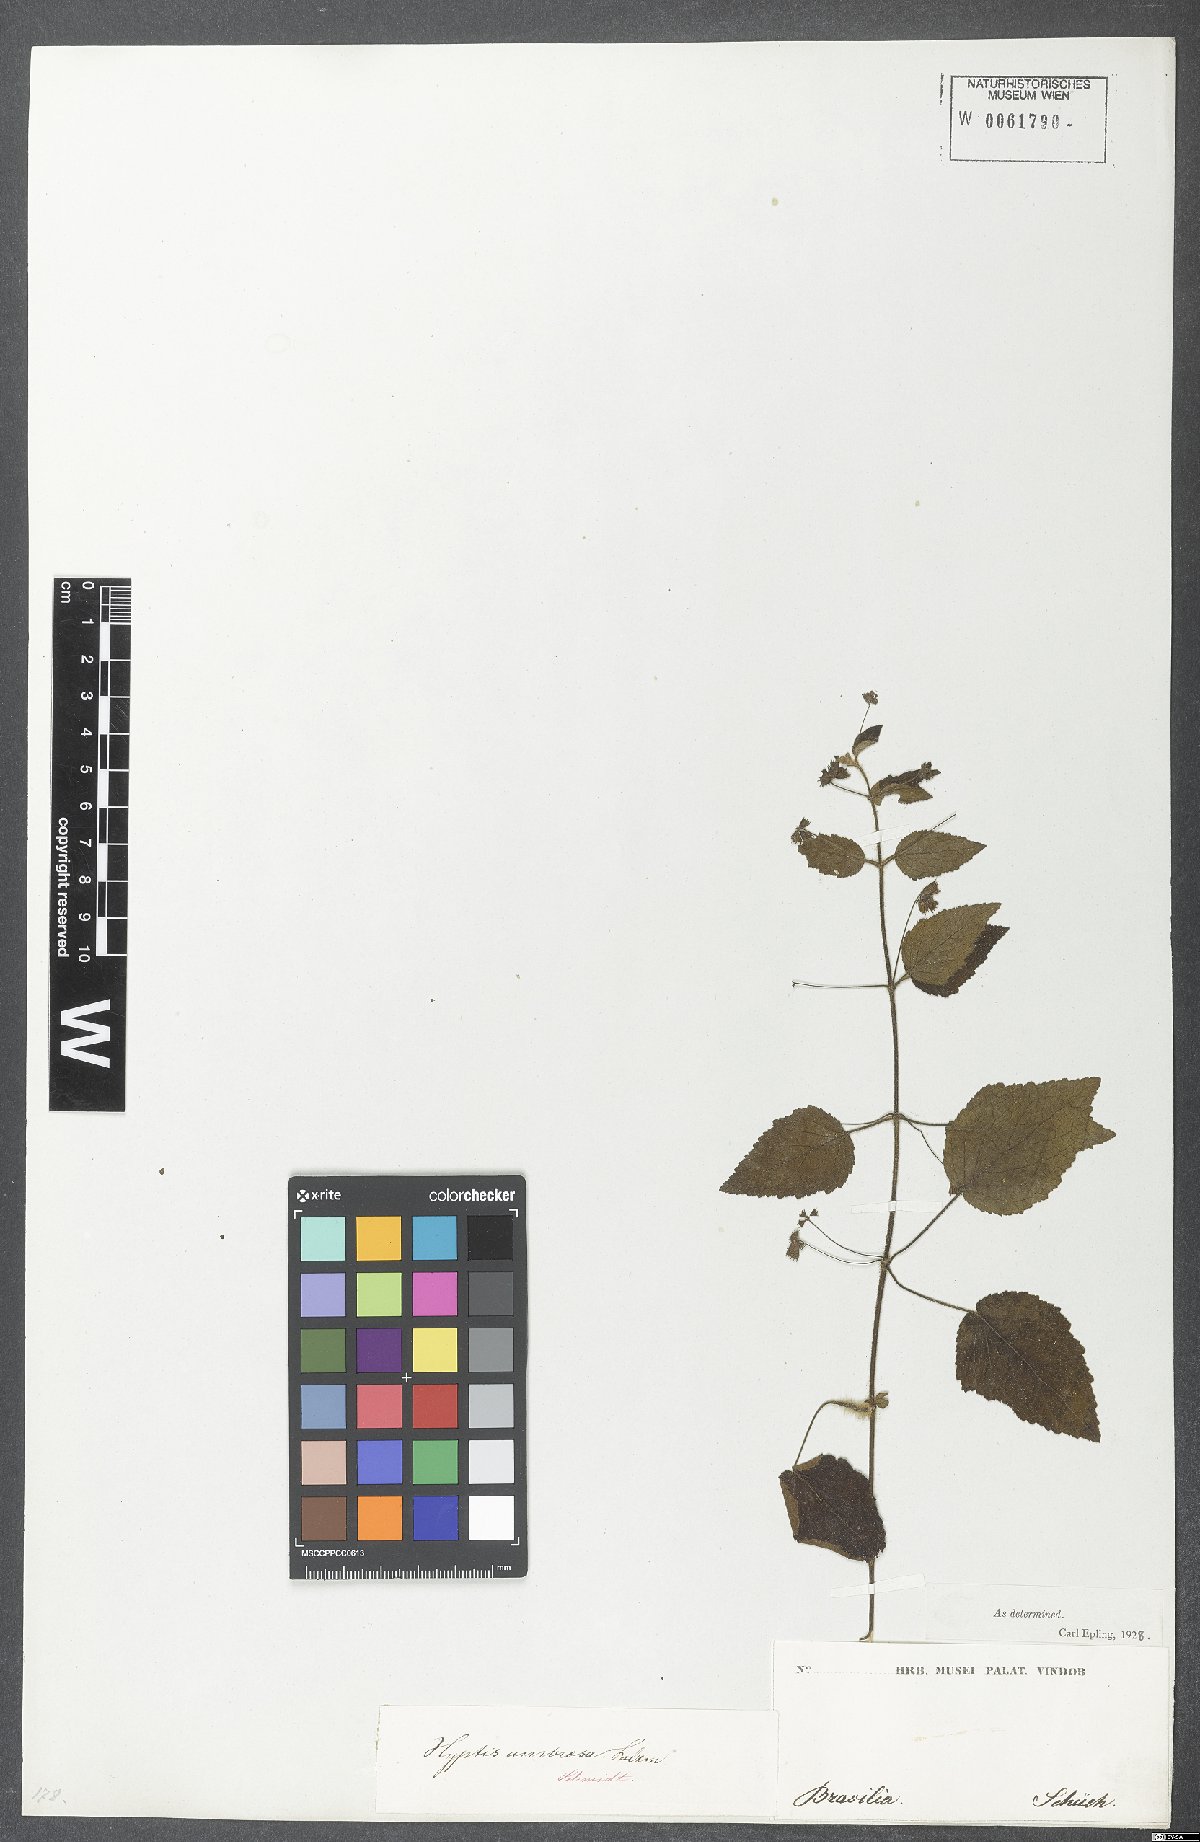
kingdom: Plantae
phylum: Tracheophyta
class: Magnoliopsida
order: Lamiales
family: Lamiaceae
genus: Mesosphaerum
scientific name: Mesosphaerum sidifolium
